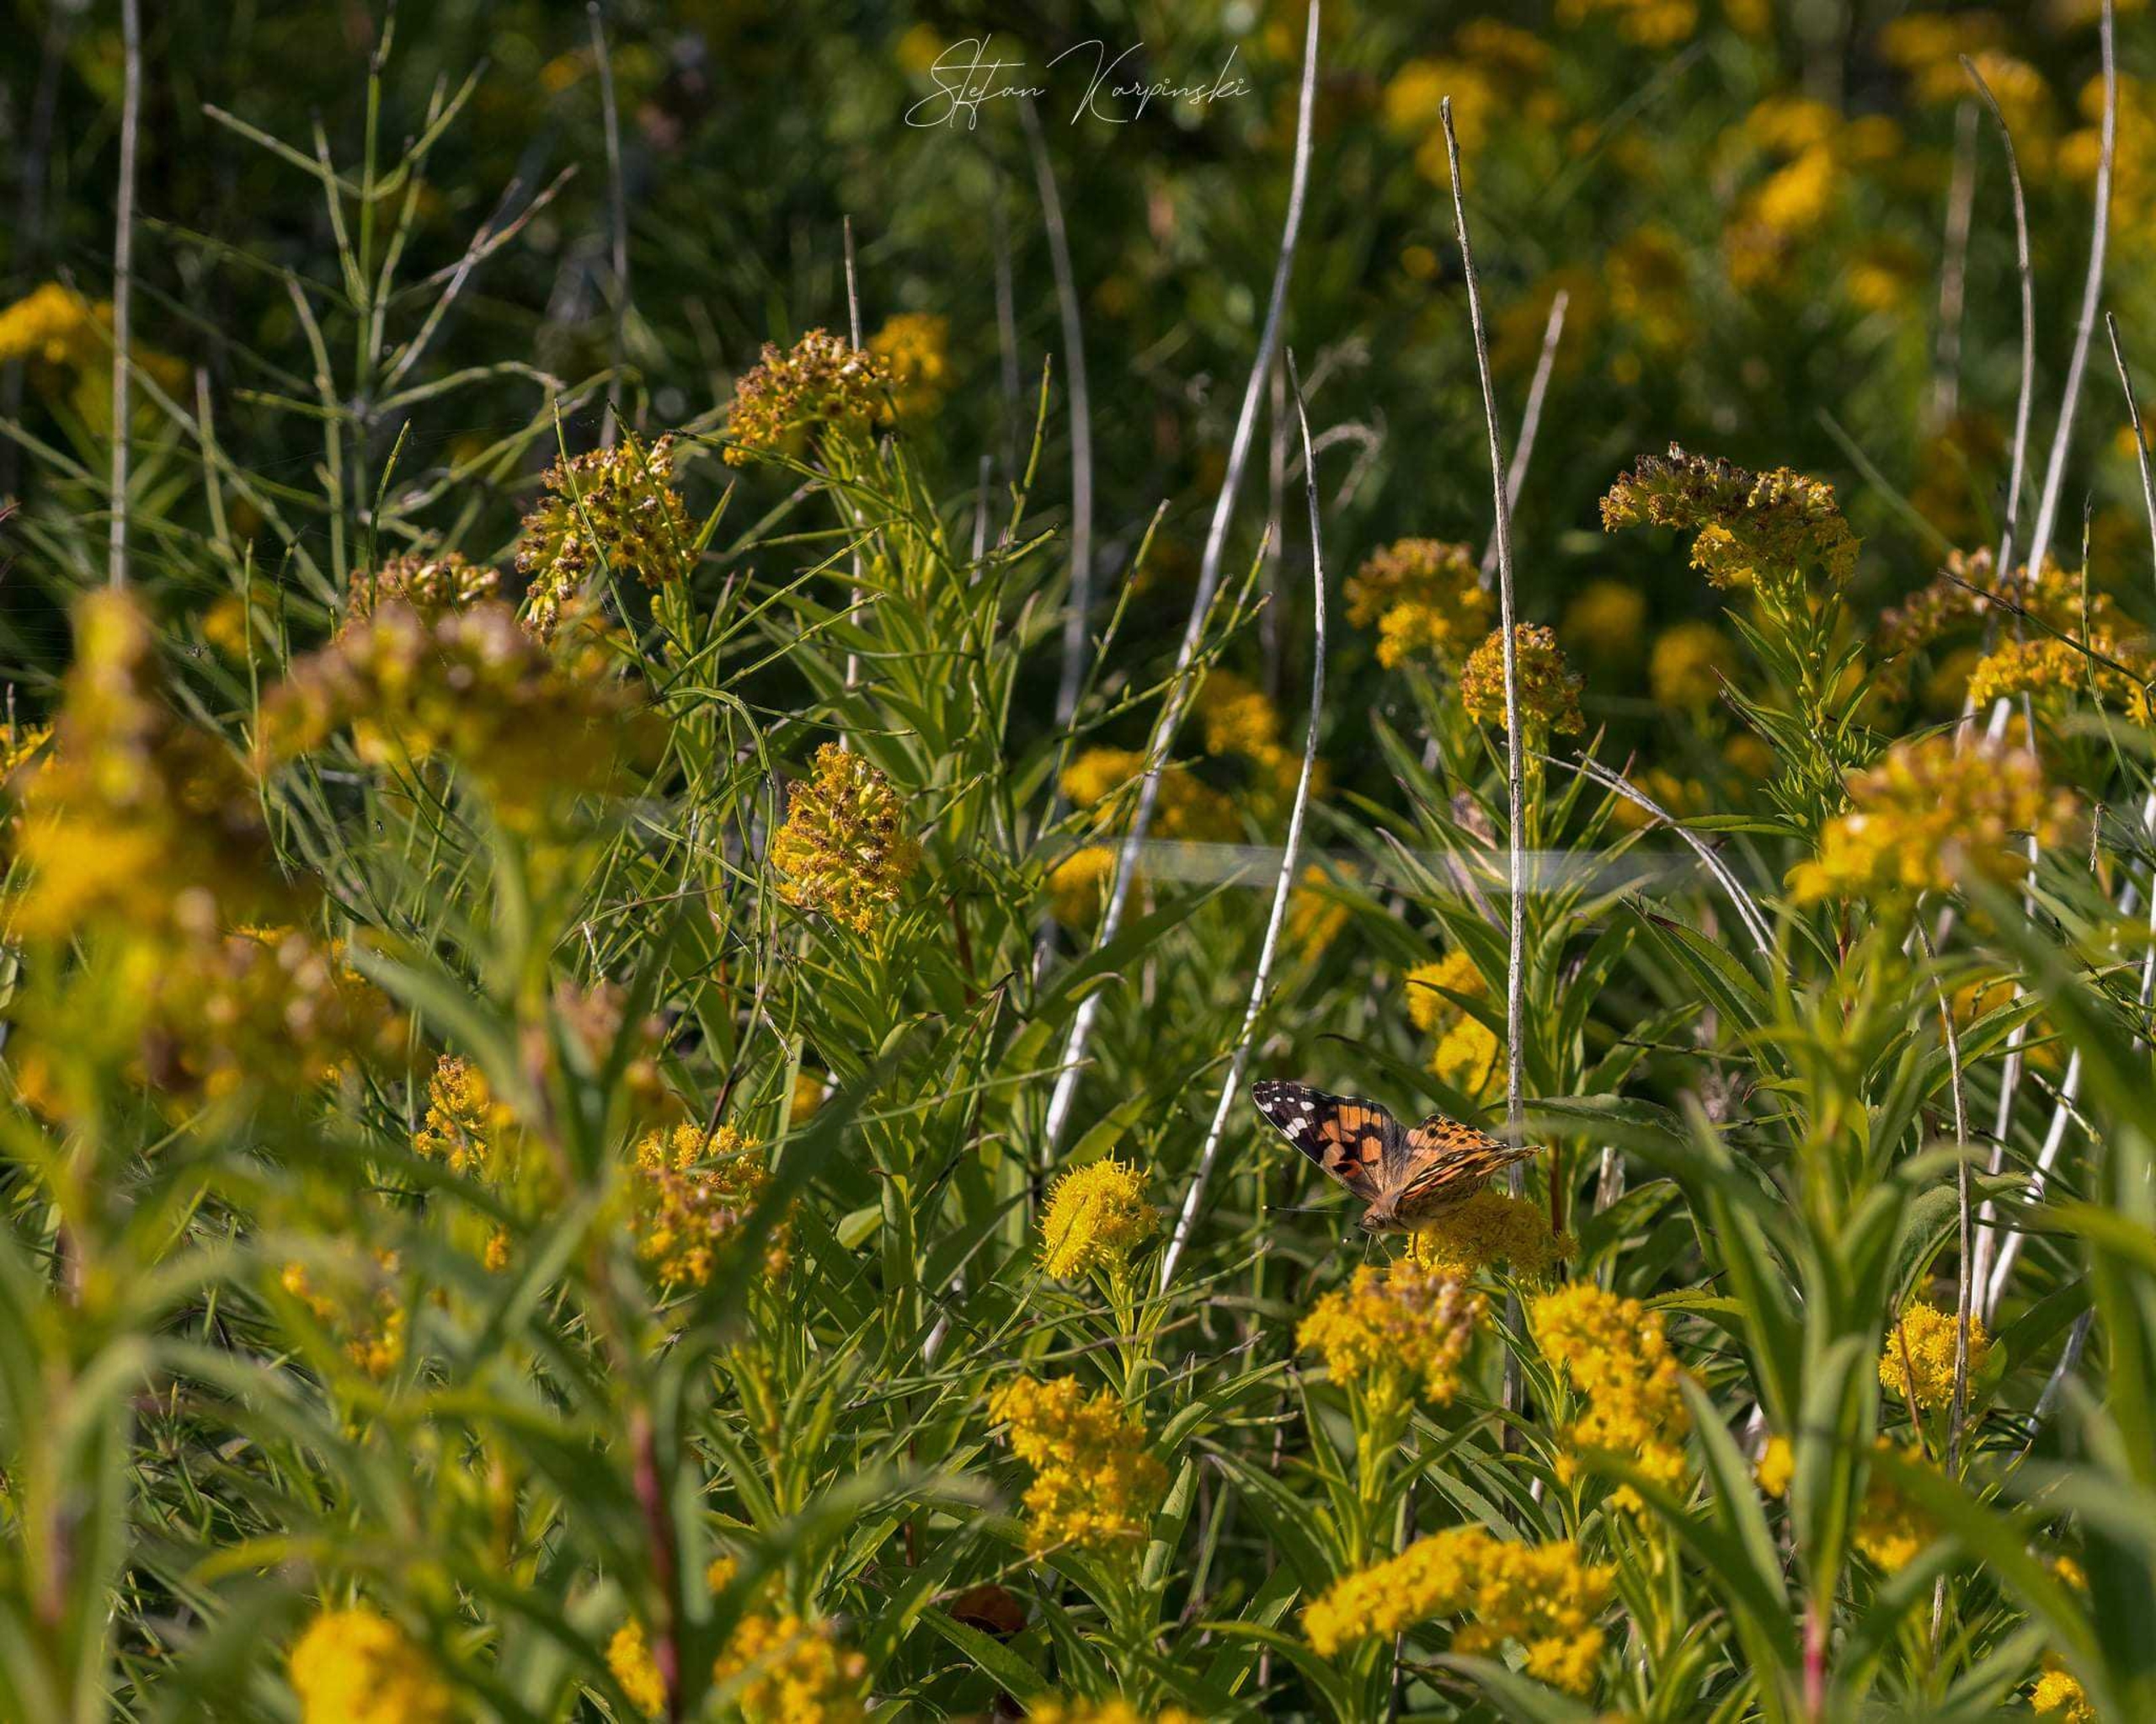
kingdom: Animalia
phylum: Arthropoda
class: Insecta
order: Lepidoptera
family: Nymphalidae
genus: Vanessa
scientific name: Vanessa cardui
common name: Tidselsommerfugl
